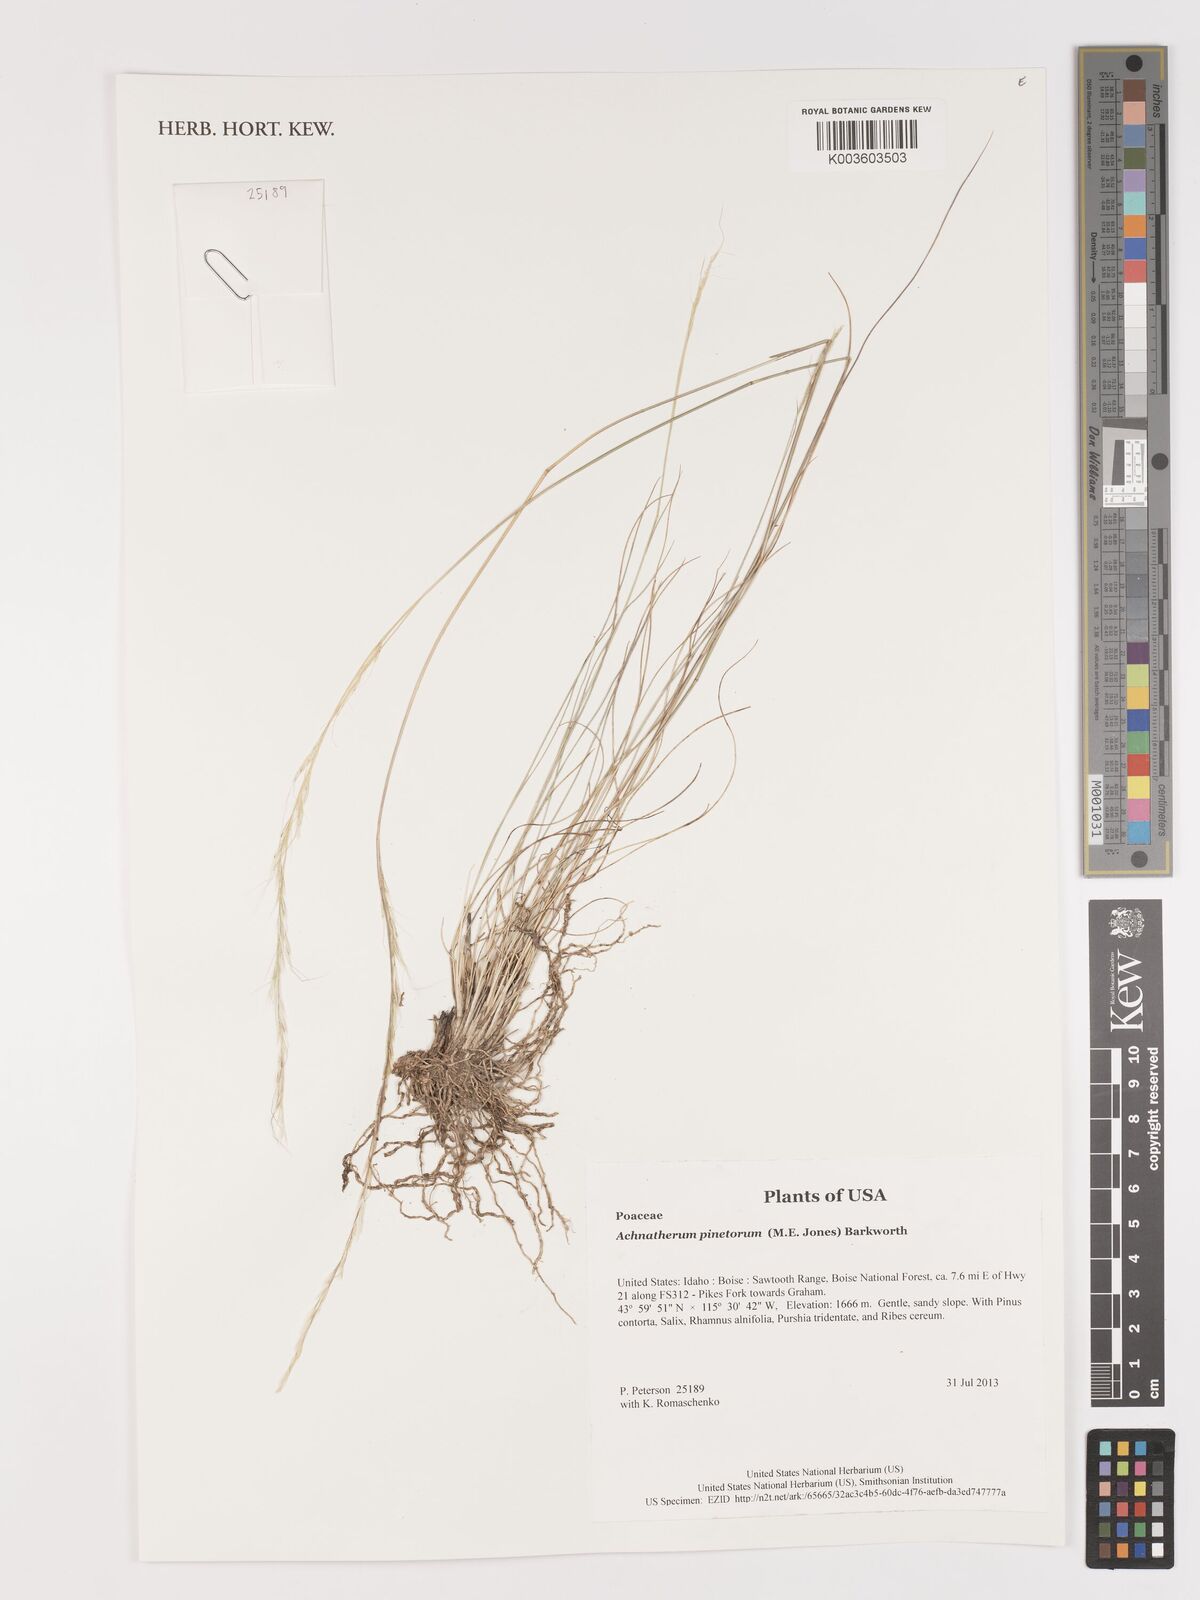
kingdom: Plantae
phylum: Tracheophyta
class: Liliopsida
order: Poales
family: Poaceae
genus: Eriocoma
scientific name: Eriocoma pinetorum
